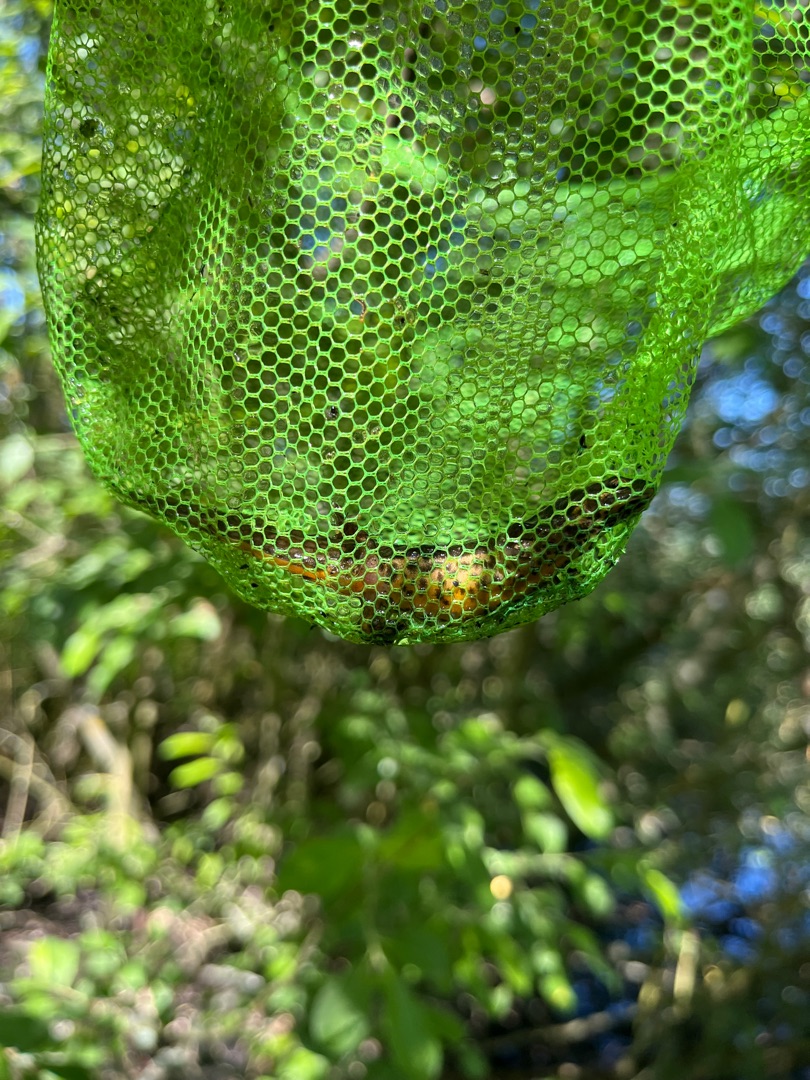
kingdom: Animalia
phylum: Chordata
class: Amphibia
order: Caudata
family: Salamandridae
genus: Lissotriton
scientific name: Lissotriton vulgaris
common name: Lille vandsalamander
